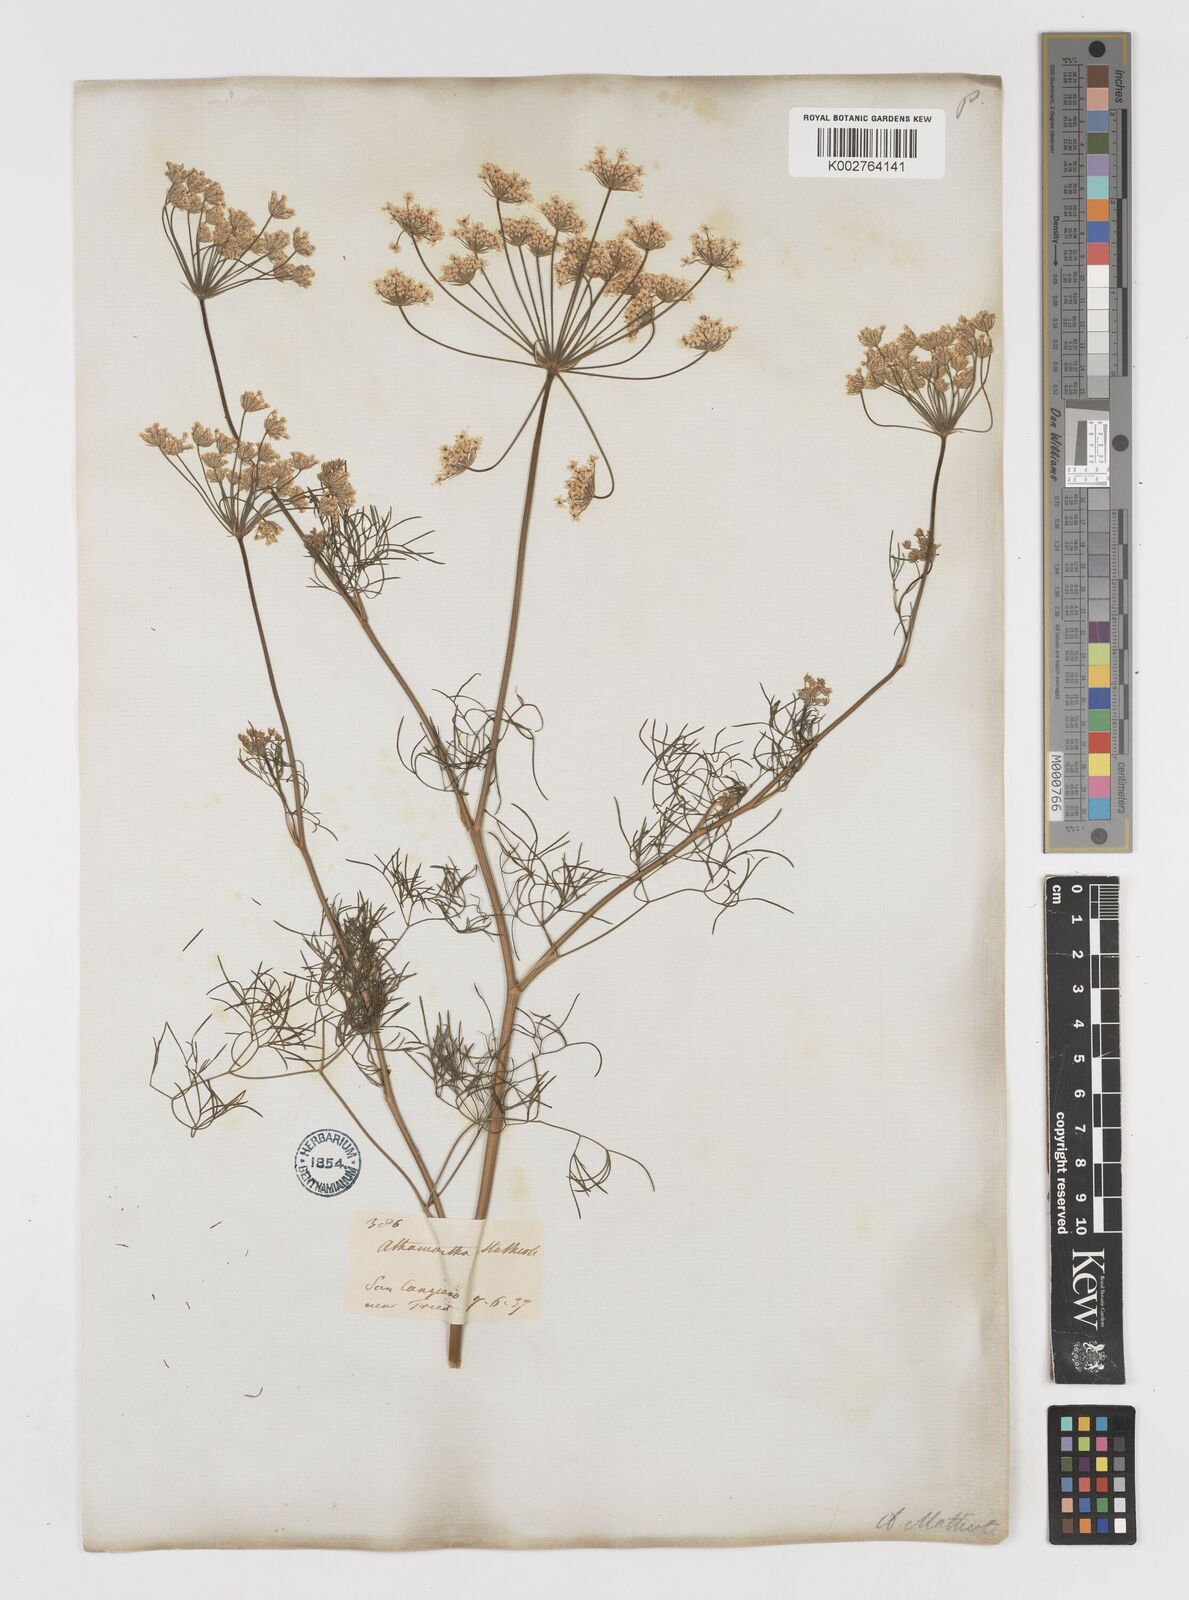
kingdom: Plantae
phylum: Tracheophyta
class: Magnoliopsida
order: Apiales
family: Apiaceae
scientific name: Apiaceae
